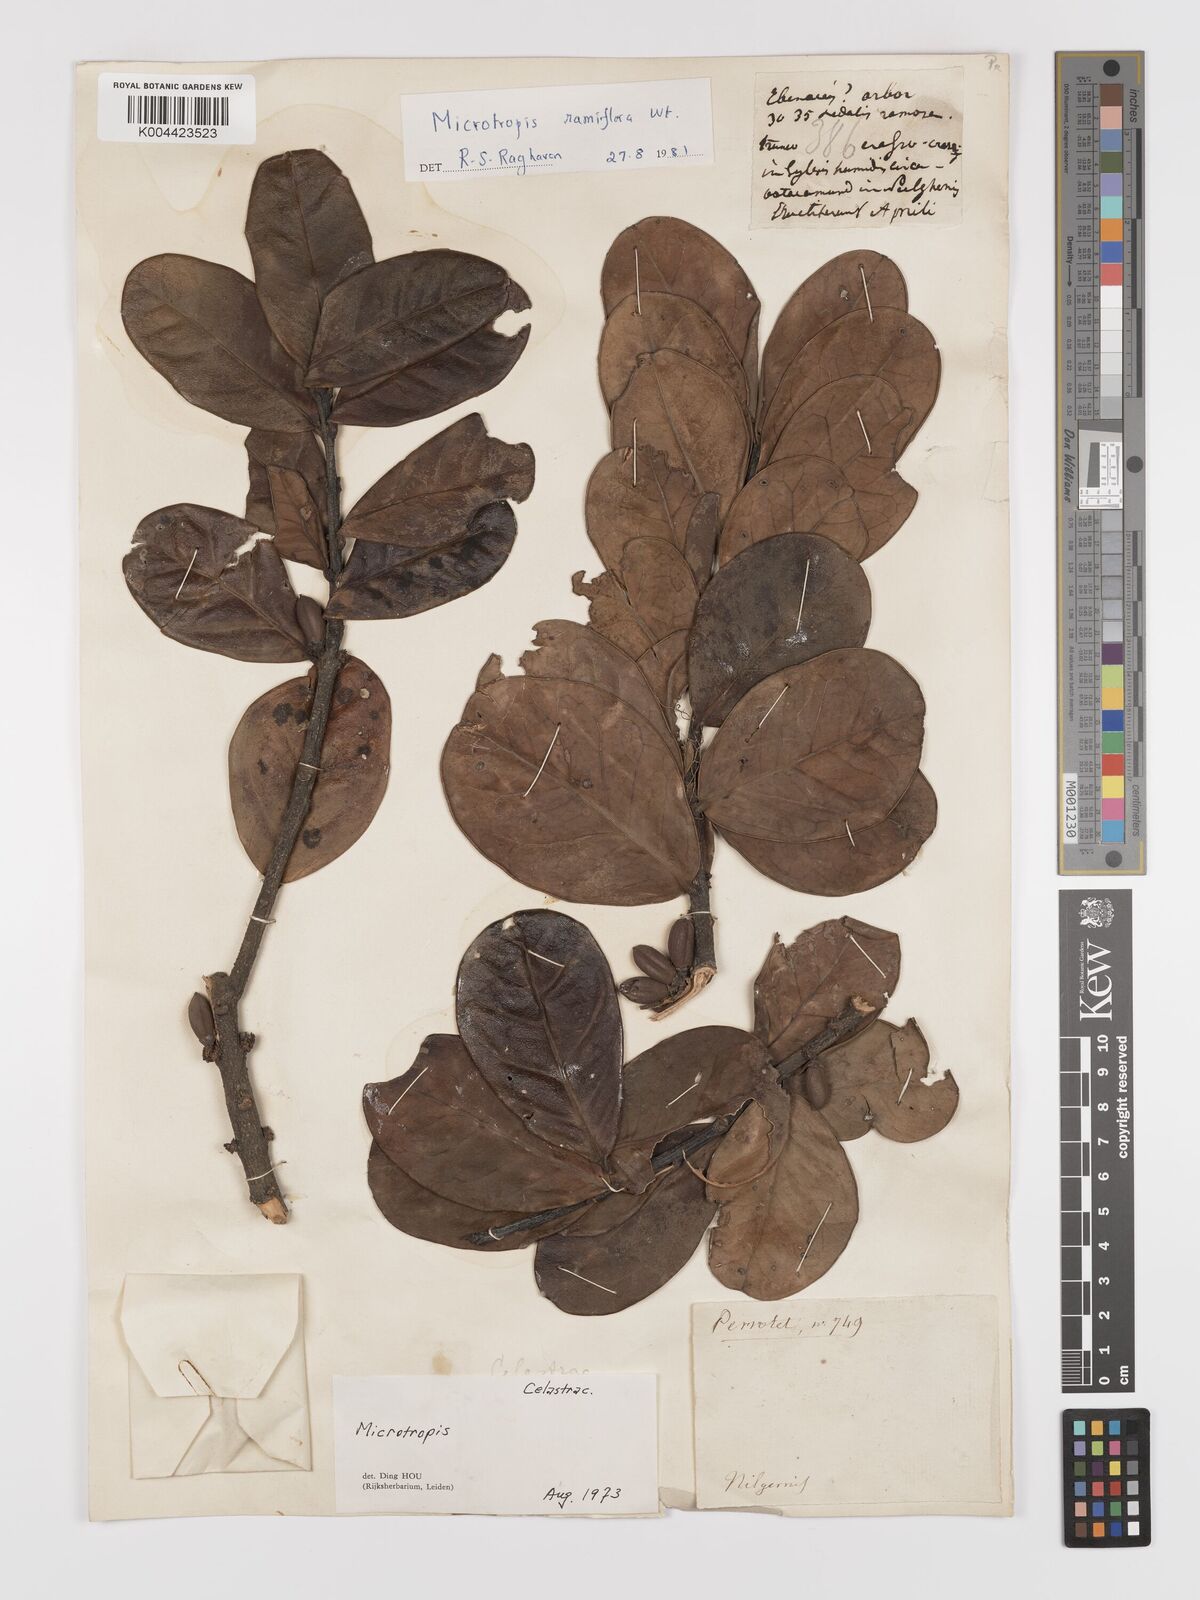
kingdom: Plantae
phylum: Tracheophyta
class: Magnoliopsida
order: Celastrales
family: Celastraceae
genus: Microtropis
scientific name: Microtropis ramiflora
